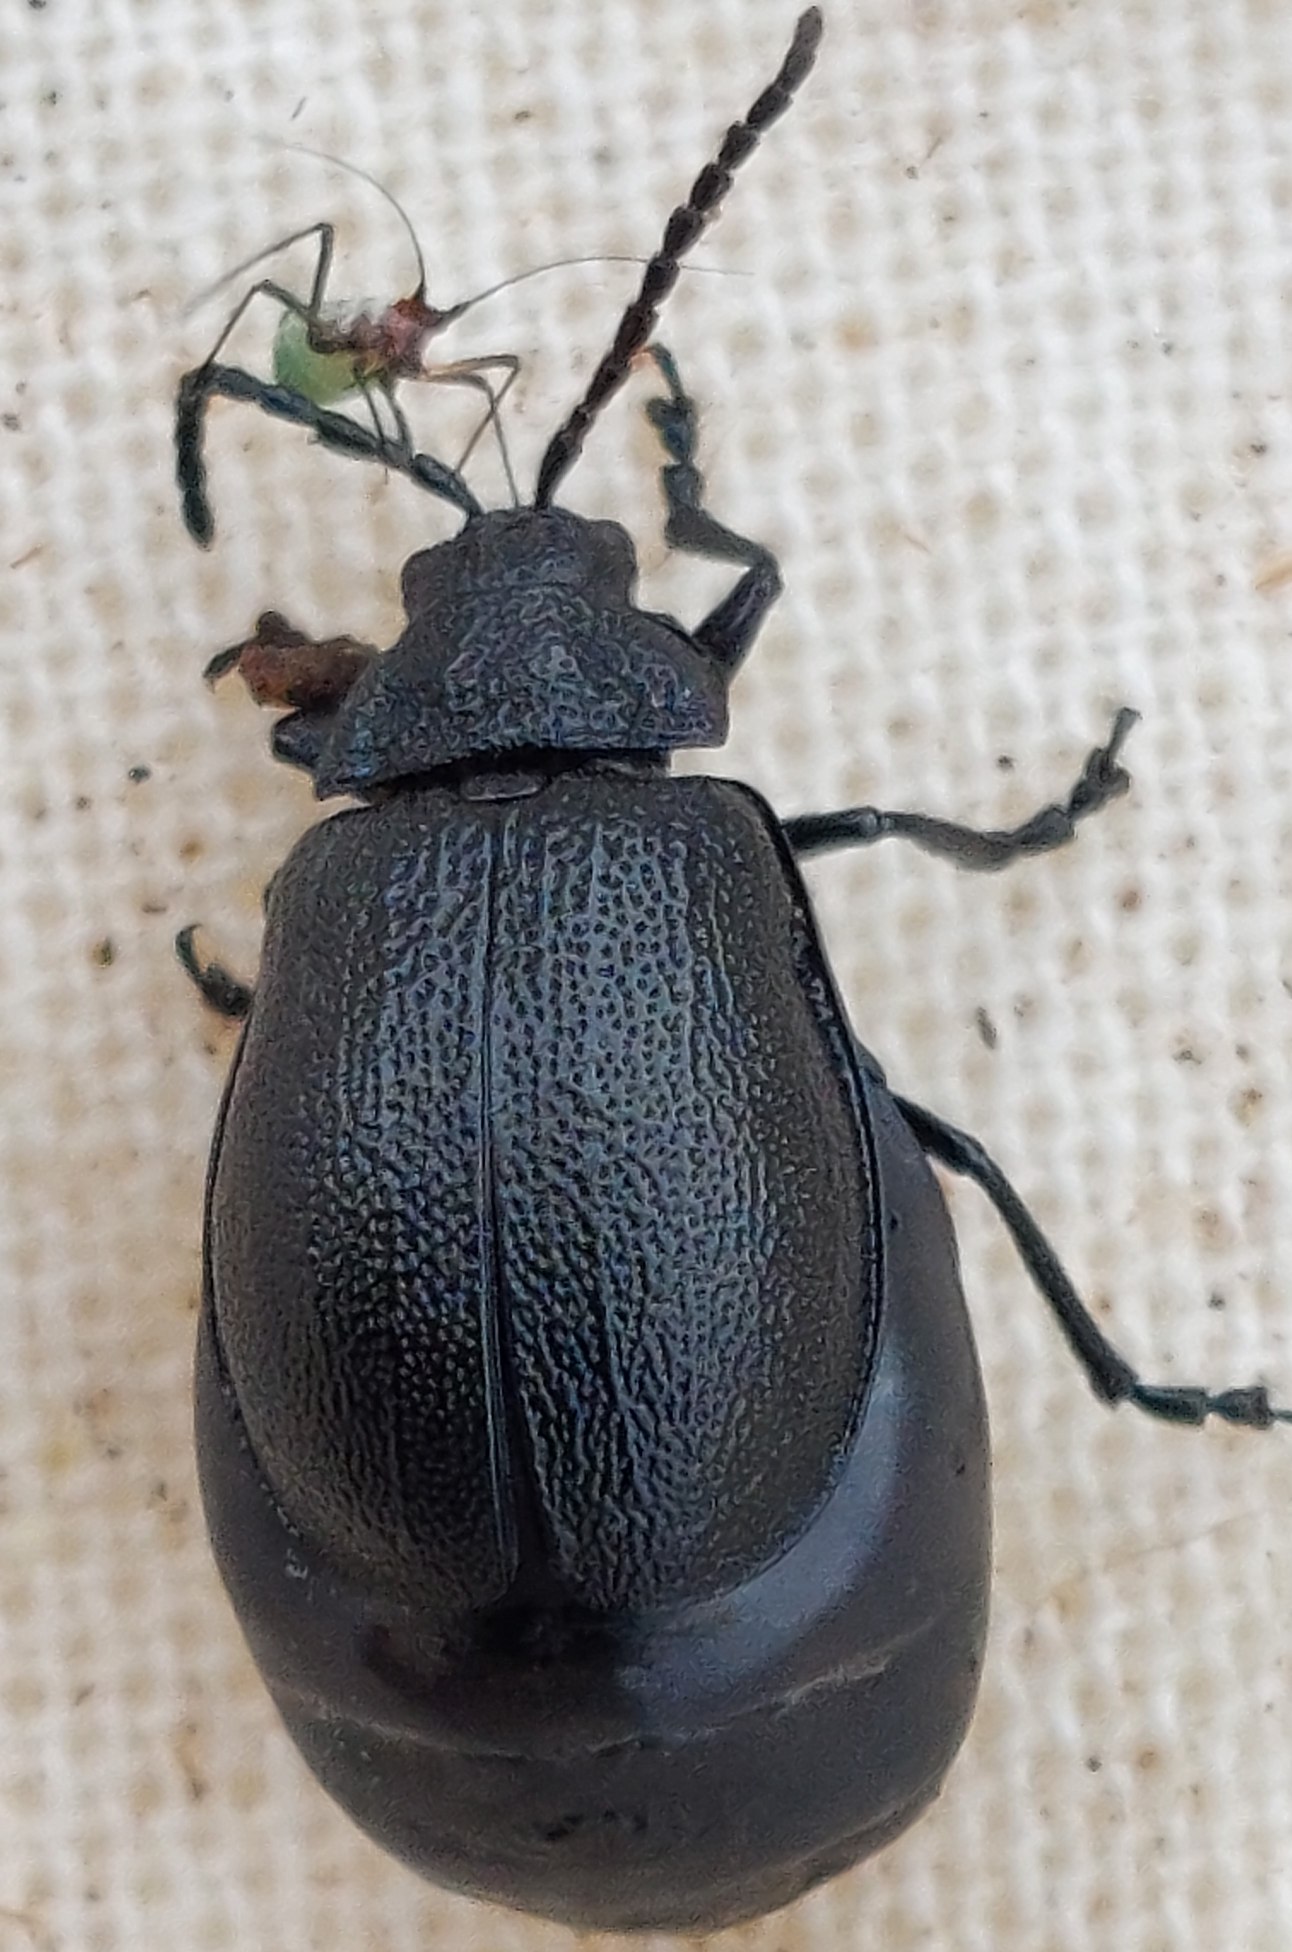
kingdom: Animalia
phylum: Arthropoda
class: Insecta
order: Coleoptera
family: Chrysomelidae
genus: Galeruca
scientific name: Galeruca tanaceti
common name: Rejnfanbladbille
